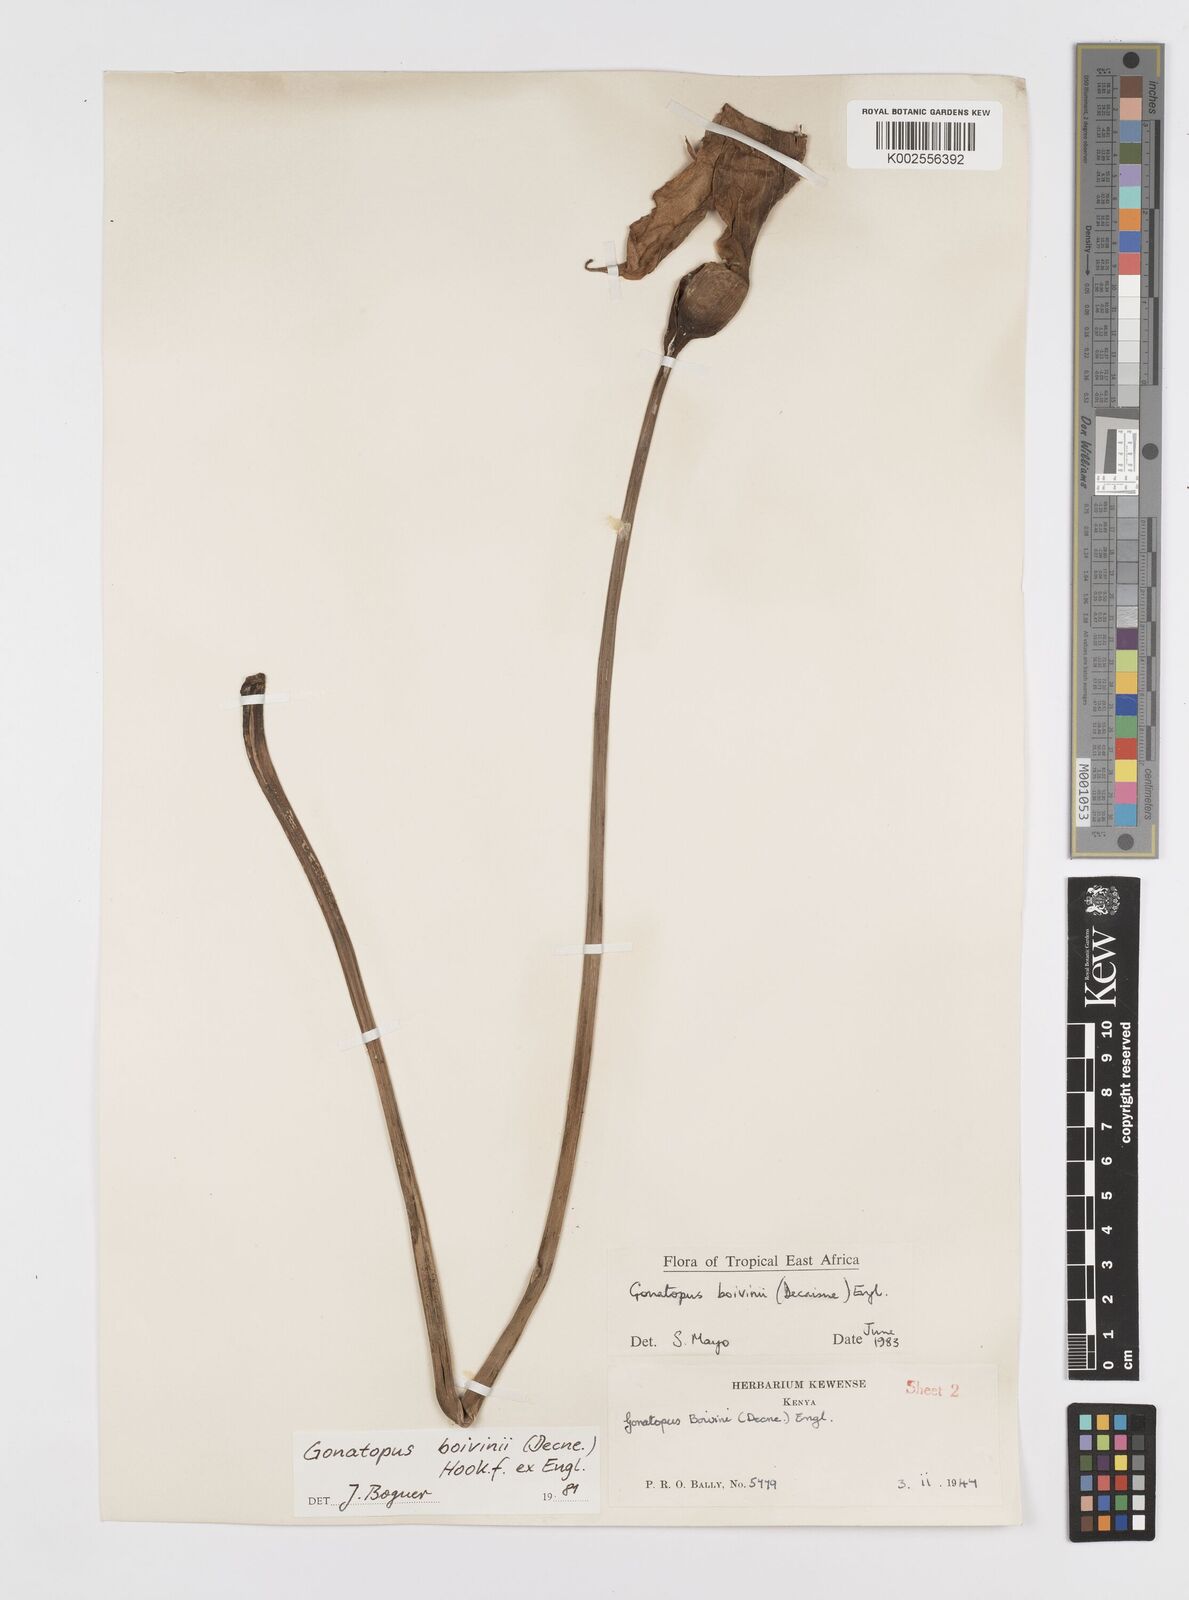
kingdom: Plantae
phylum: Tracheophyta
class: Liliopsida
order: Alismatales
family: Araceae
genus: Gonatopus
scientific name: Gonatopus boivinii
